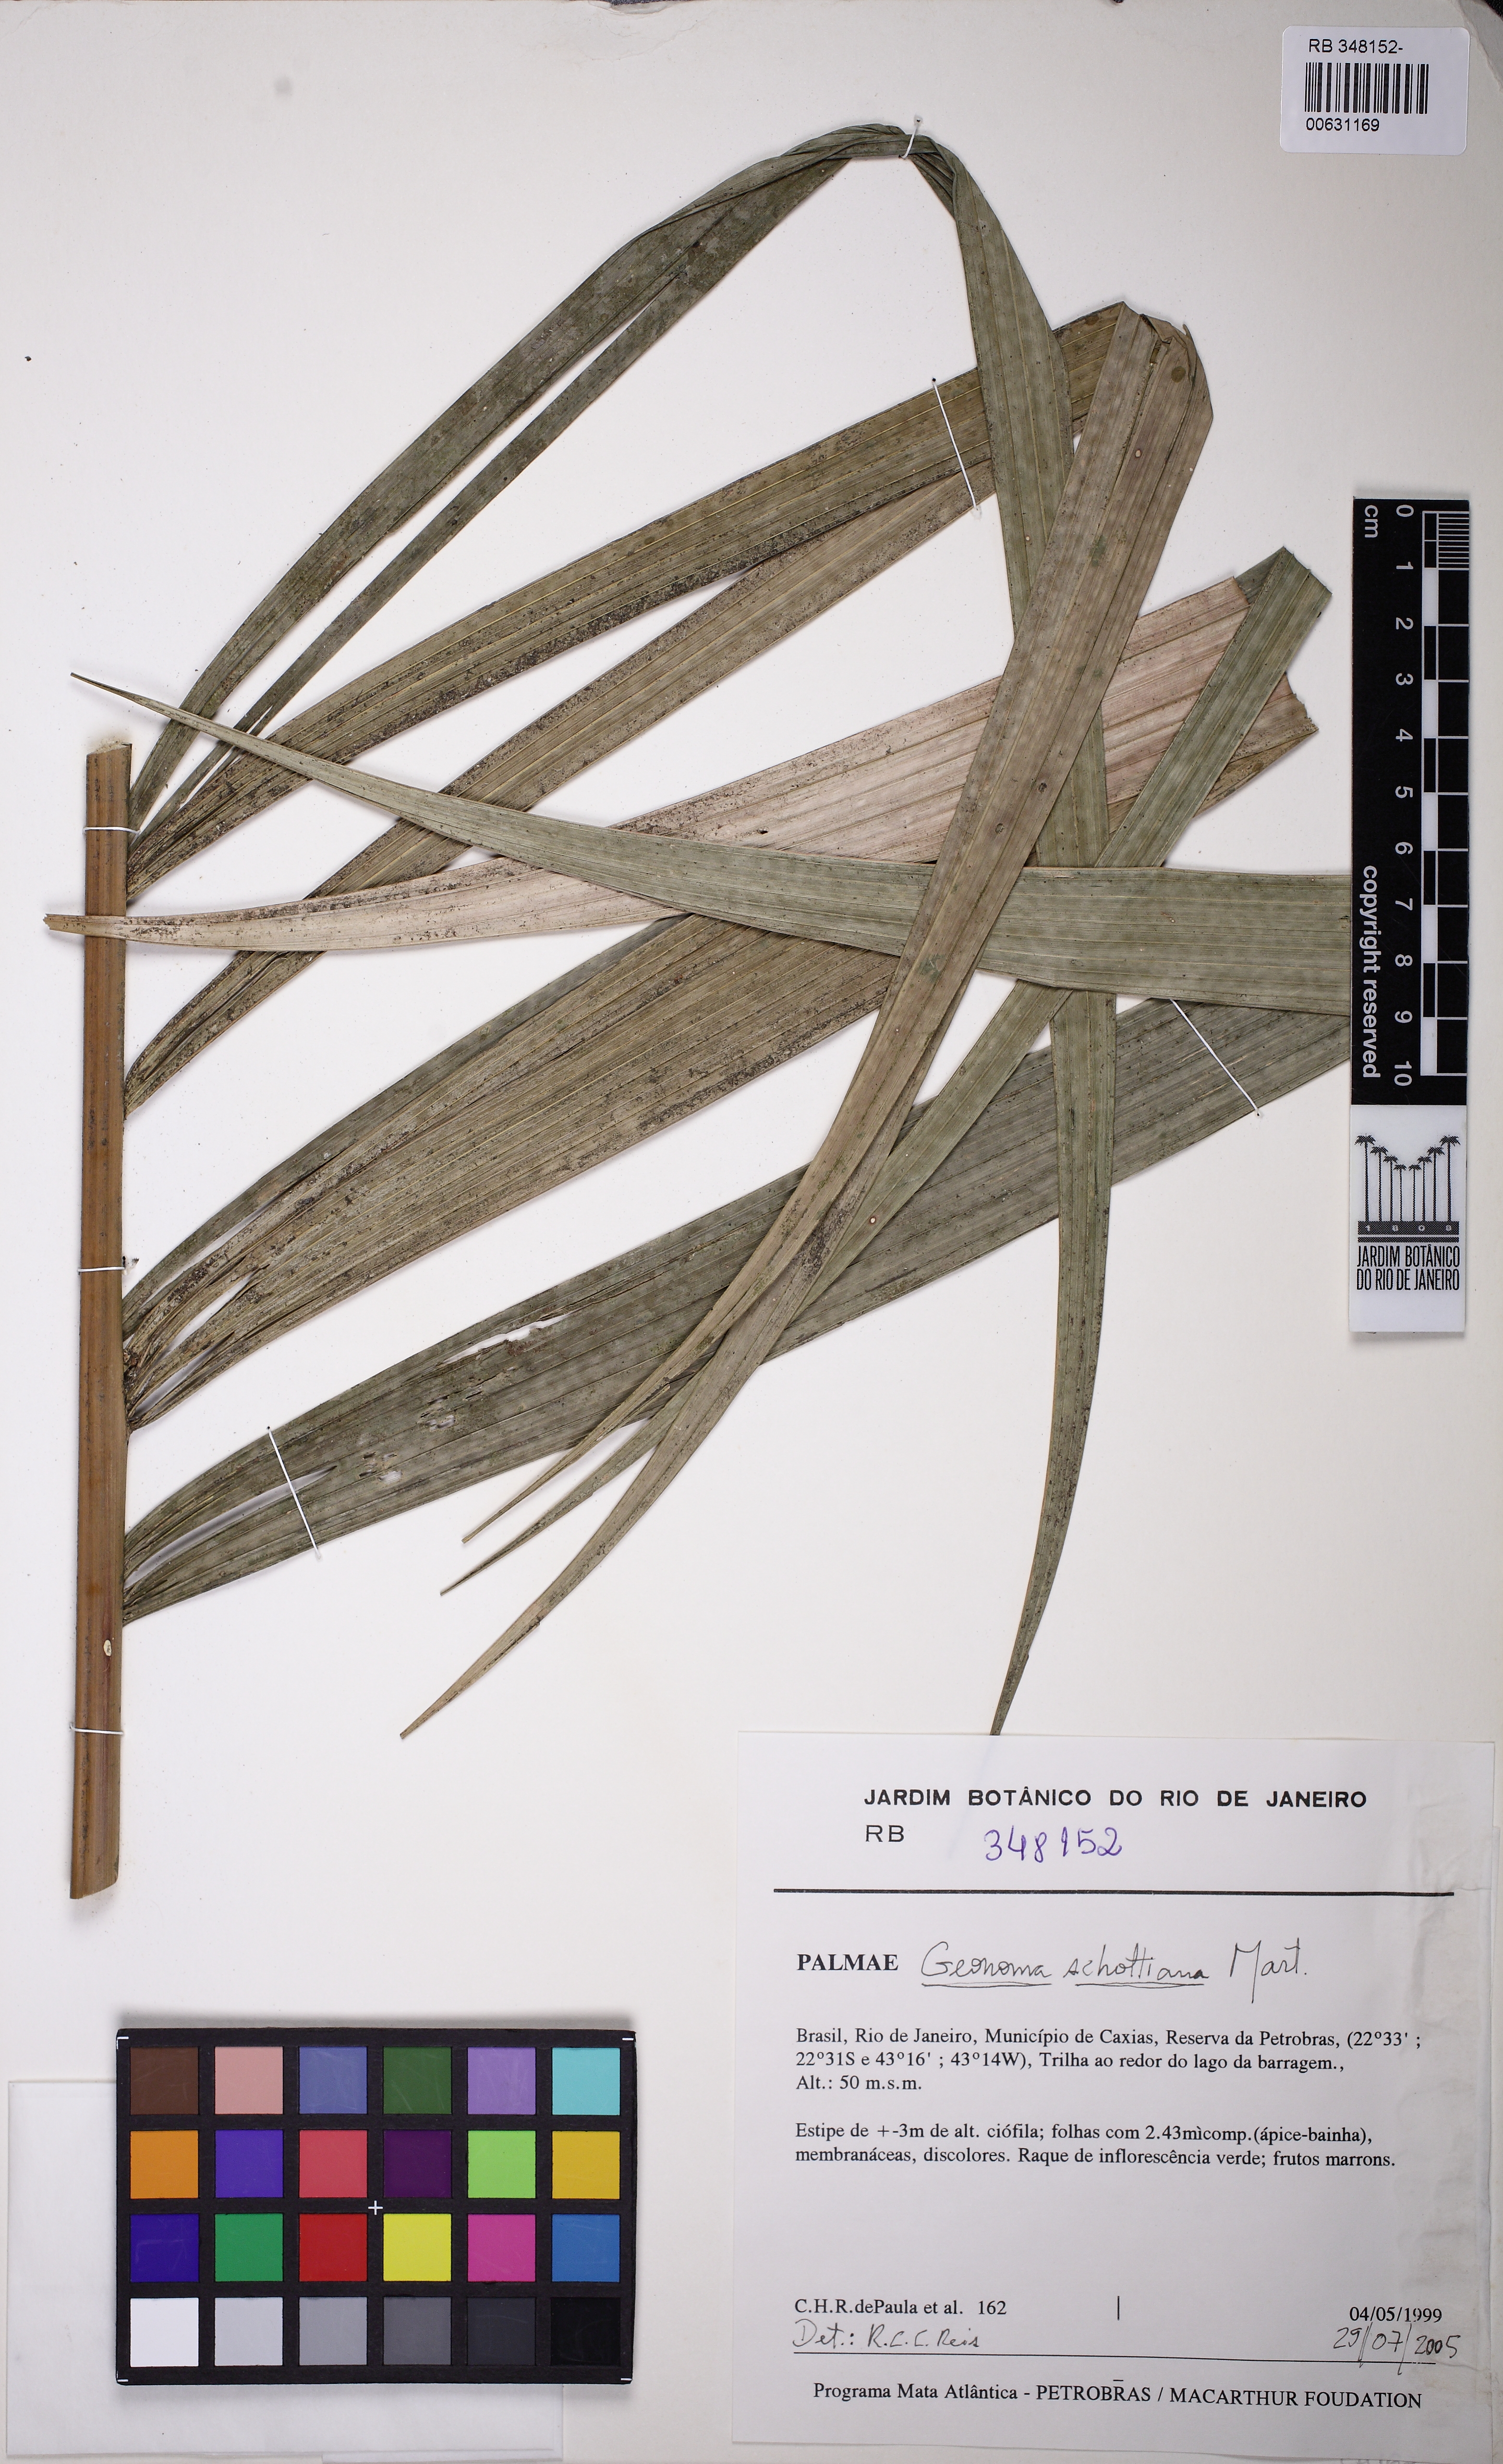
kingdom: Plantae
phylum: Tracheophyta
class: Liliopsida
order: Arecales
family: Arecaceae
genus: Geonoma
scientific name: Geonoma schottiana
